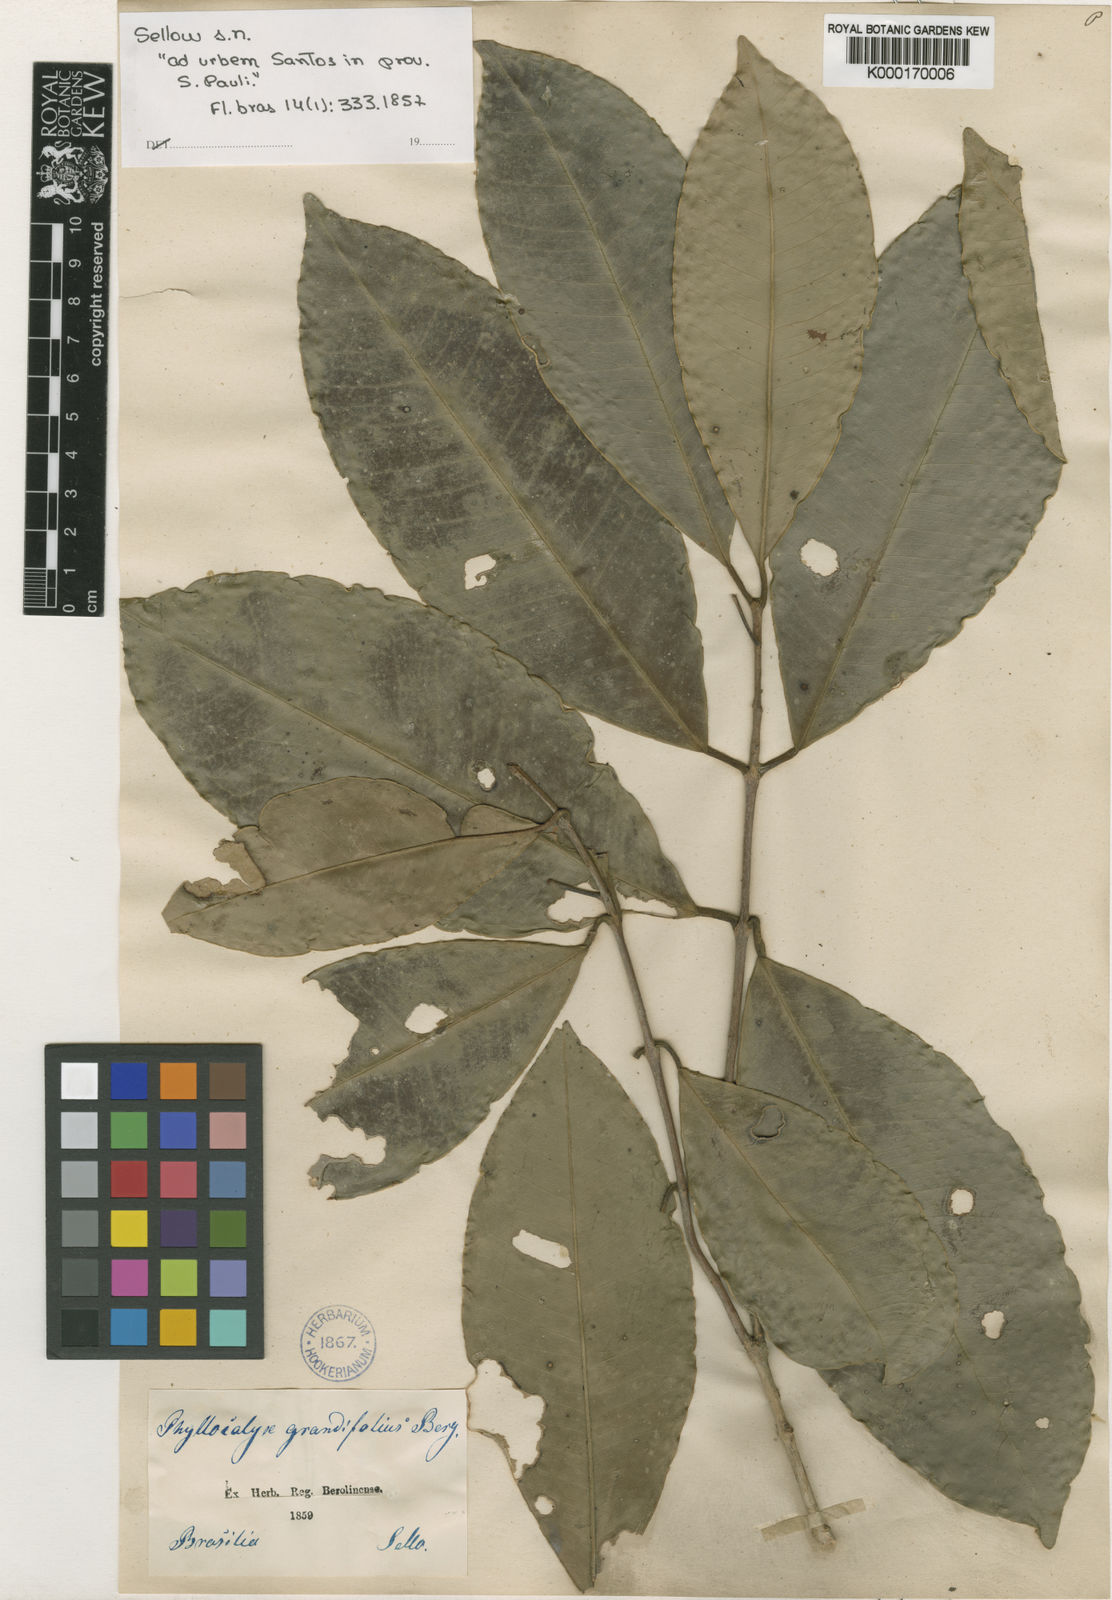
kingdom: Plantae
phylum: Tracheophyta
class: Magnoliopsida
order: Myrtales
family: Myrtaceae
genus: Eugenia
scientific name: Eugenia bunchosiifolia
